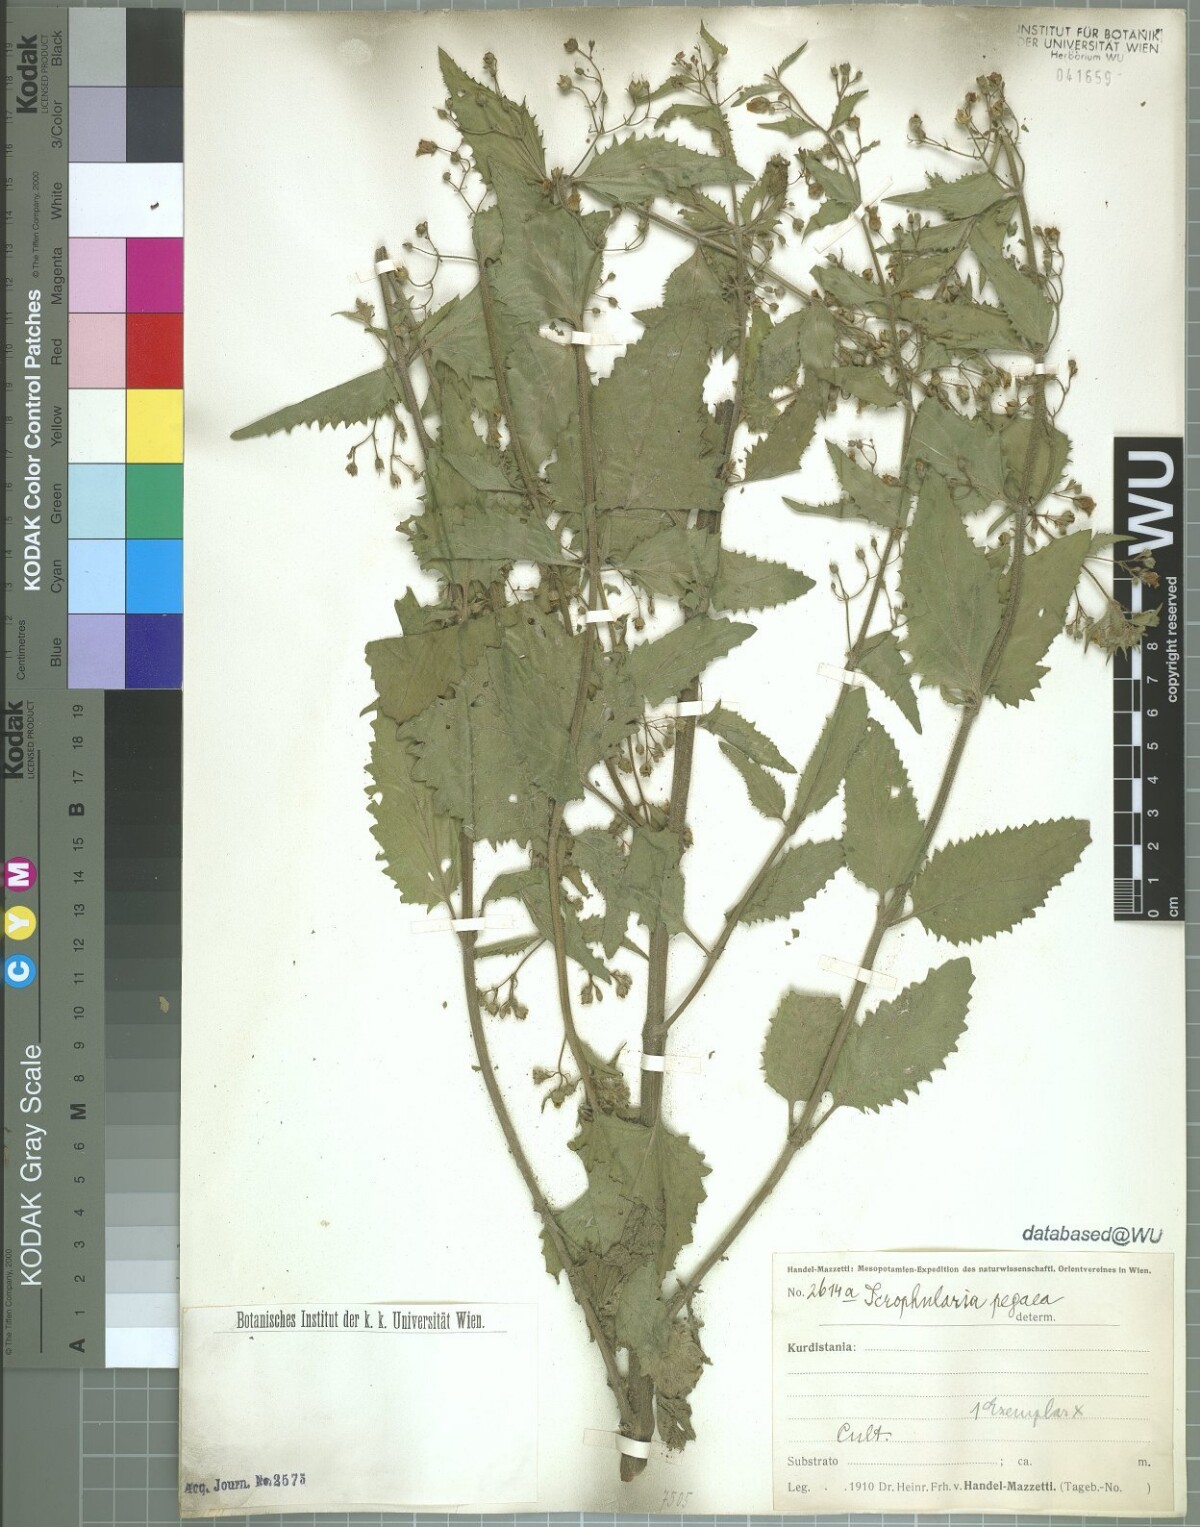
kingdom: Plantae
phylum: Tracheophyta
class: Magnoliopsida
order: Lamiales
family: Scrophulariaceae
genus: Scrophularia
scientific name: Scrophularia pegaea
